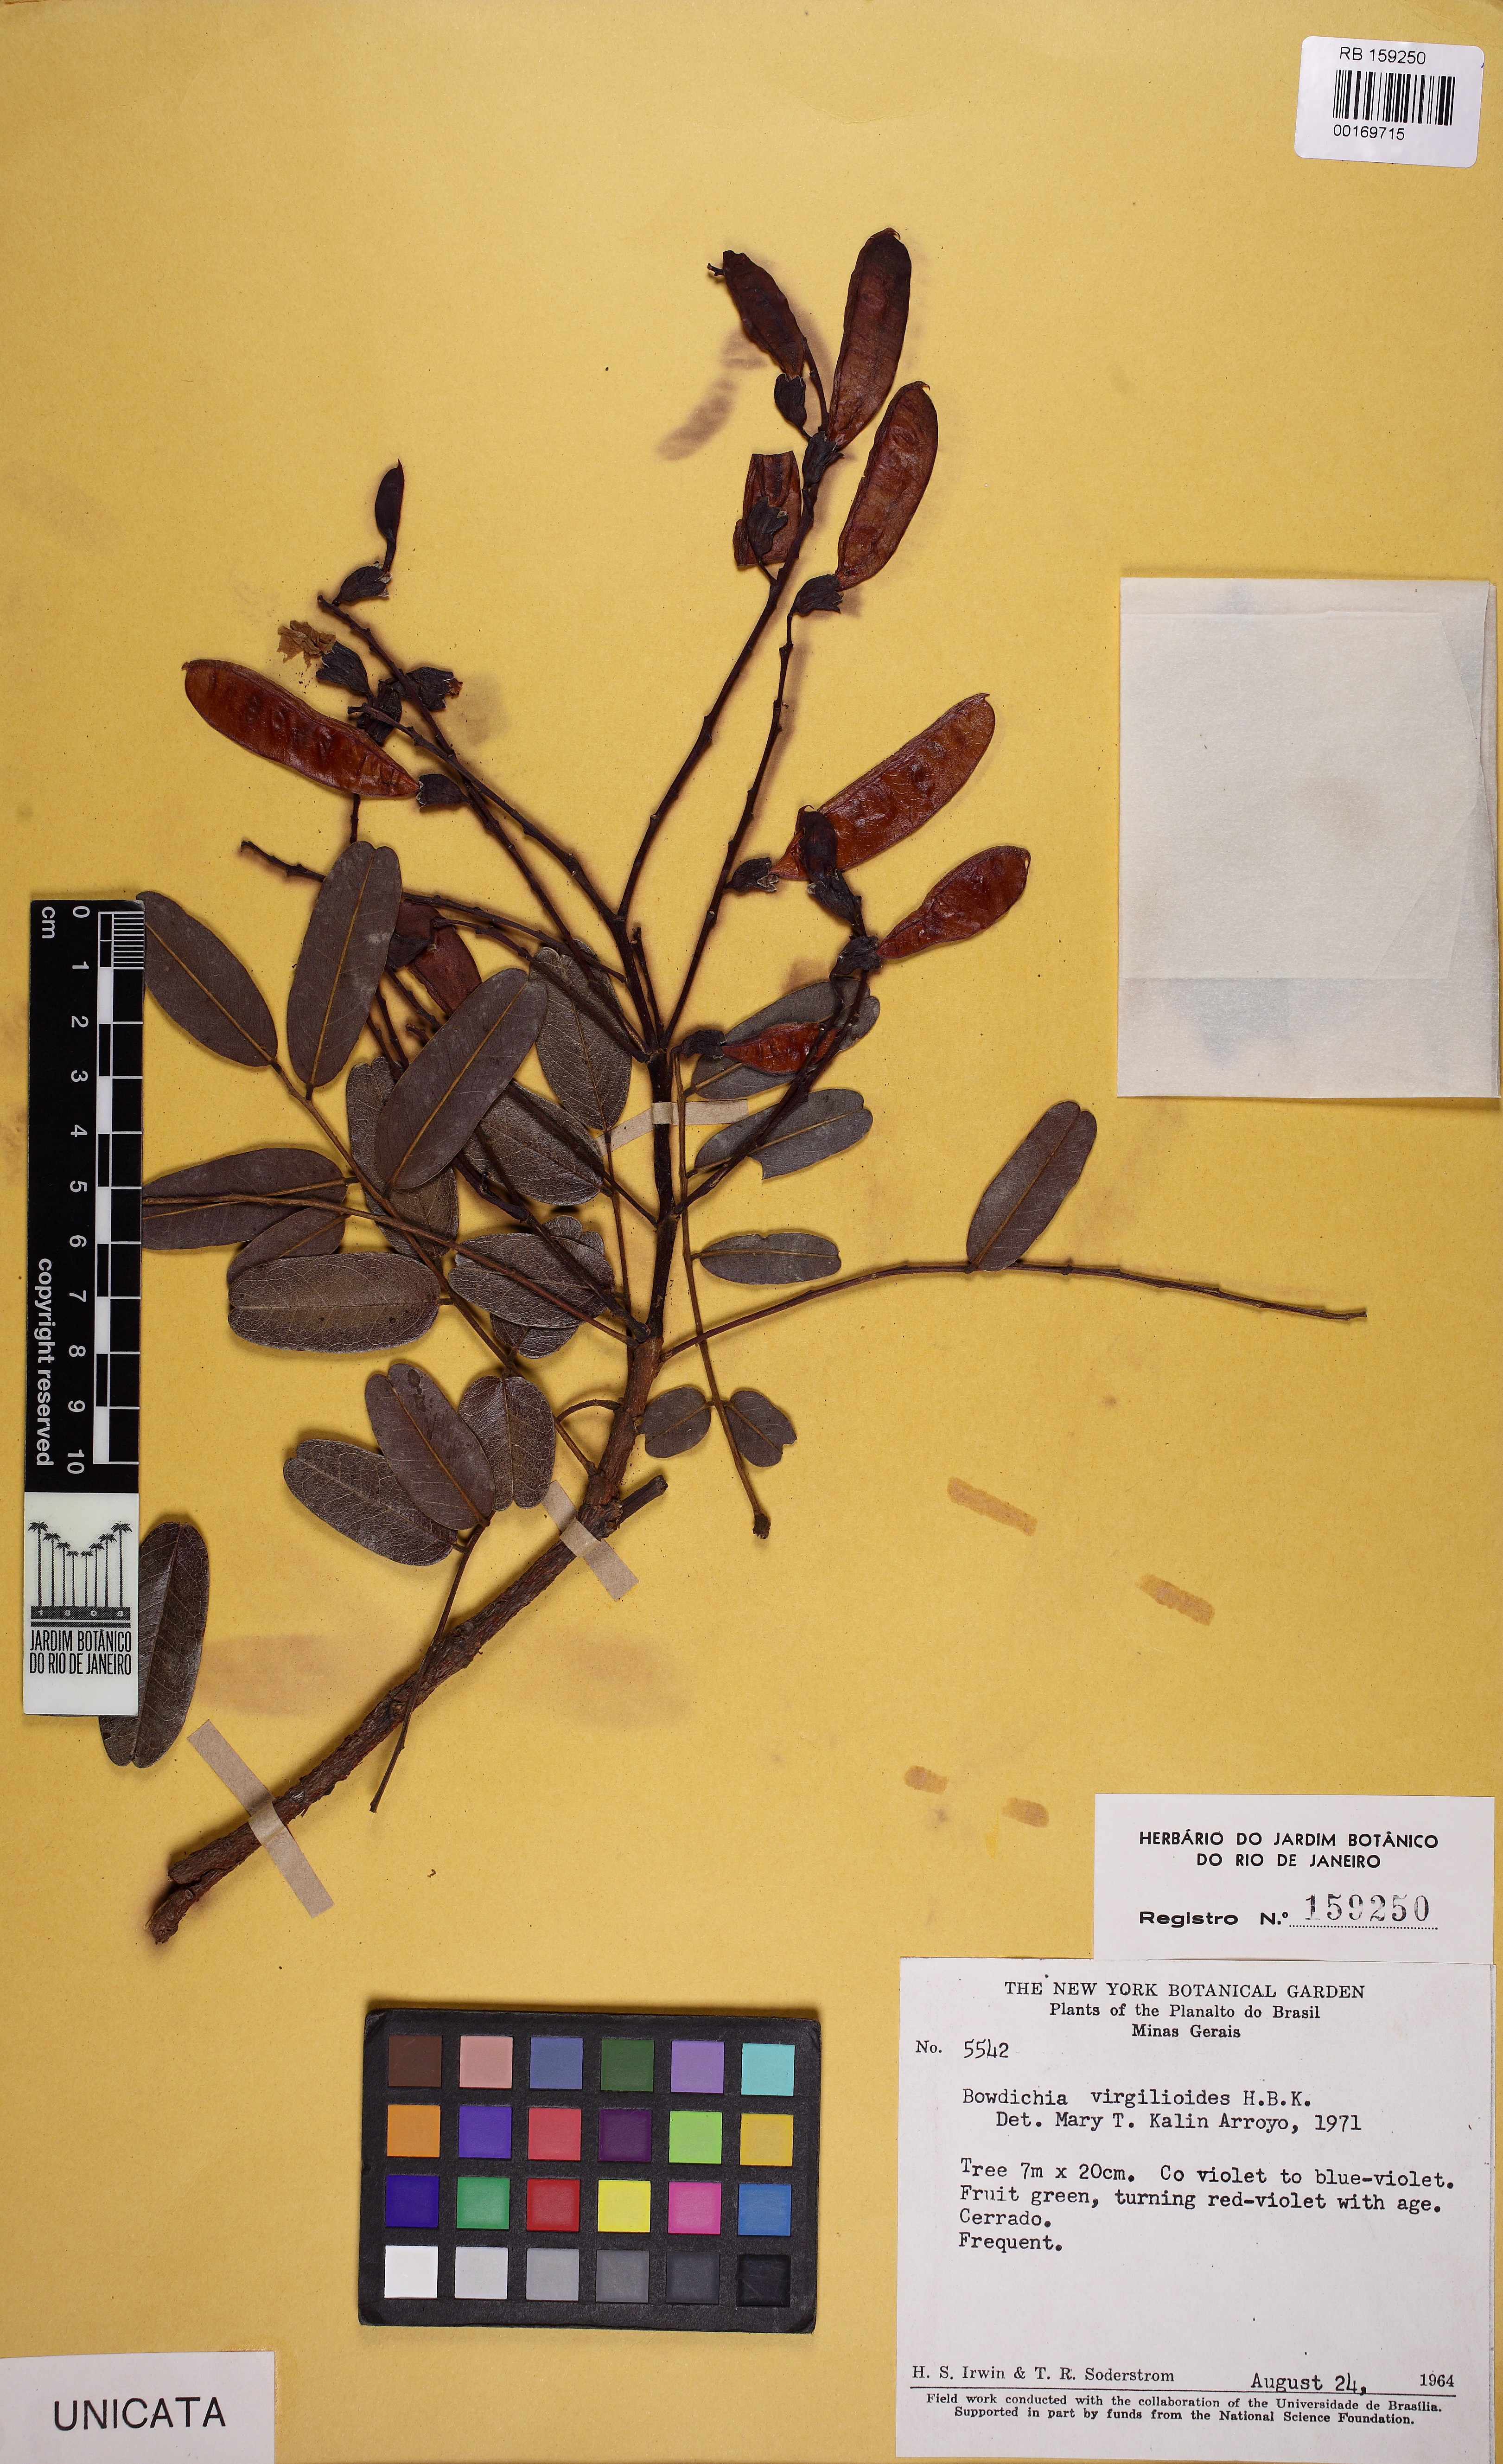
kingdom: Plantae
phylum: Tracheophyta
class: Magnoliopsida
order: Fabales
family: Fabaceae
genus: Bowdichia
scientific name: Bowdichia virgilioides
